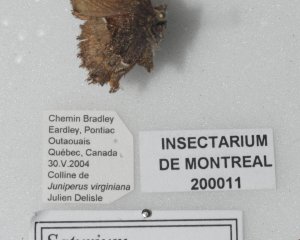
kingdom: Animalia
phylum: Arthropoda
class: Insecta
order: Lepidoptera
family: Lycaenidae
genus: Incisalia
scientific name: Incisalia henrici
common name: Henry's Elfin
